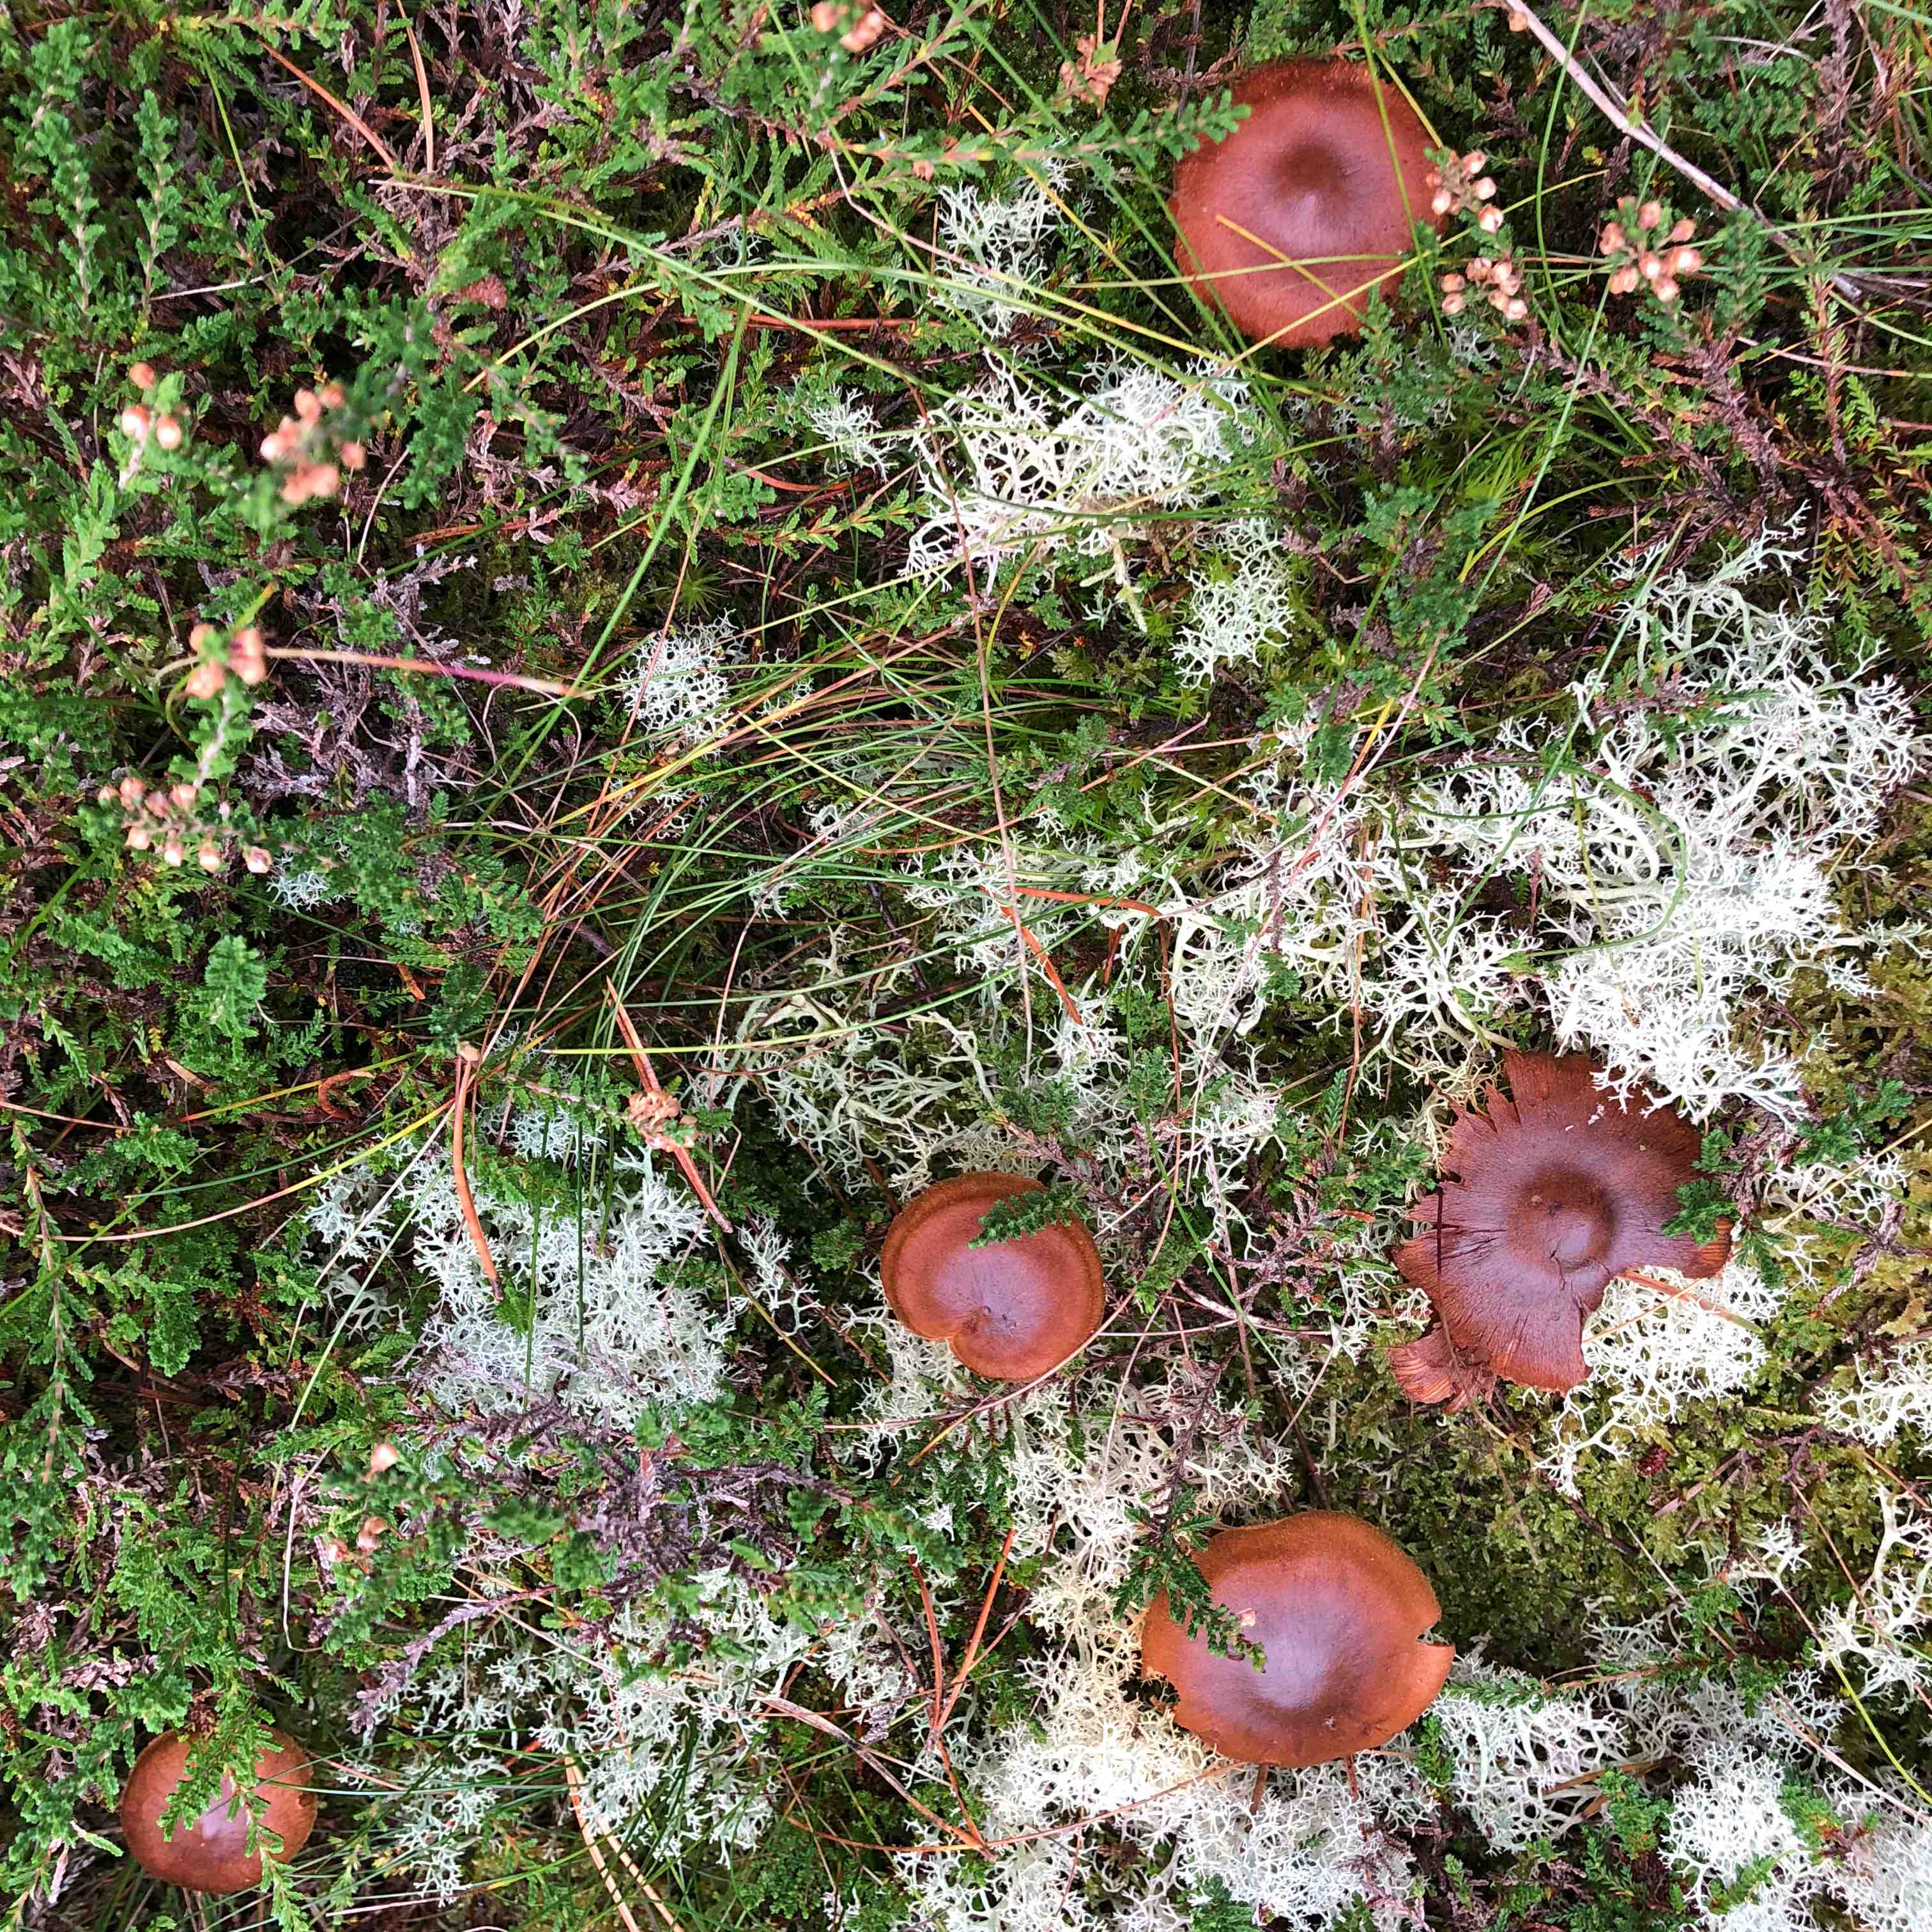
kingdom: Fungi
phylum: Basidiomycota
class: Agaricomycetes
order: Agaricales
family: Cortinariaceae
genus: Cortinarius
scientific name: Cortinarius bataillei
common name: orangefodet slørhat
